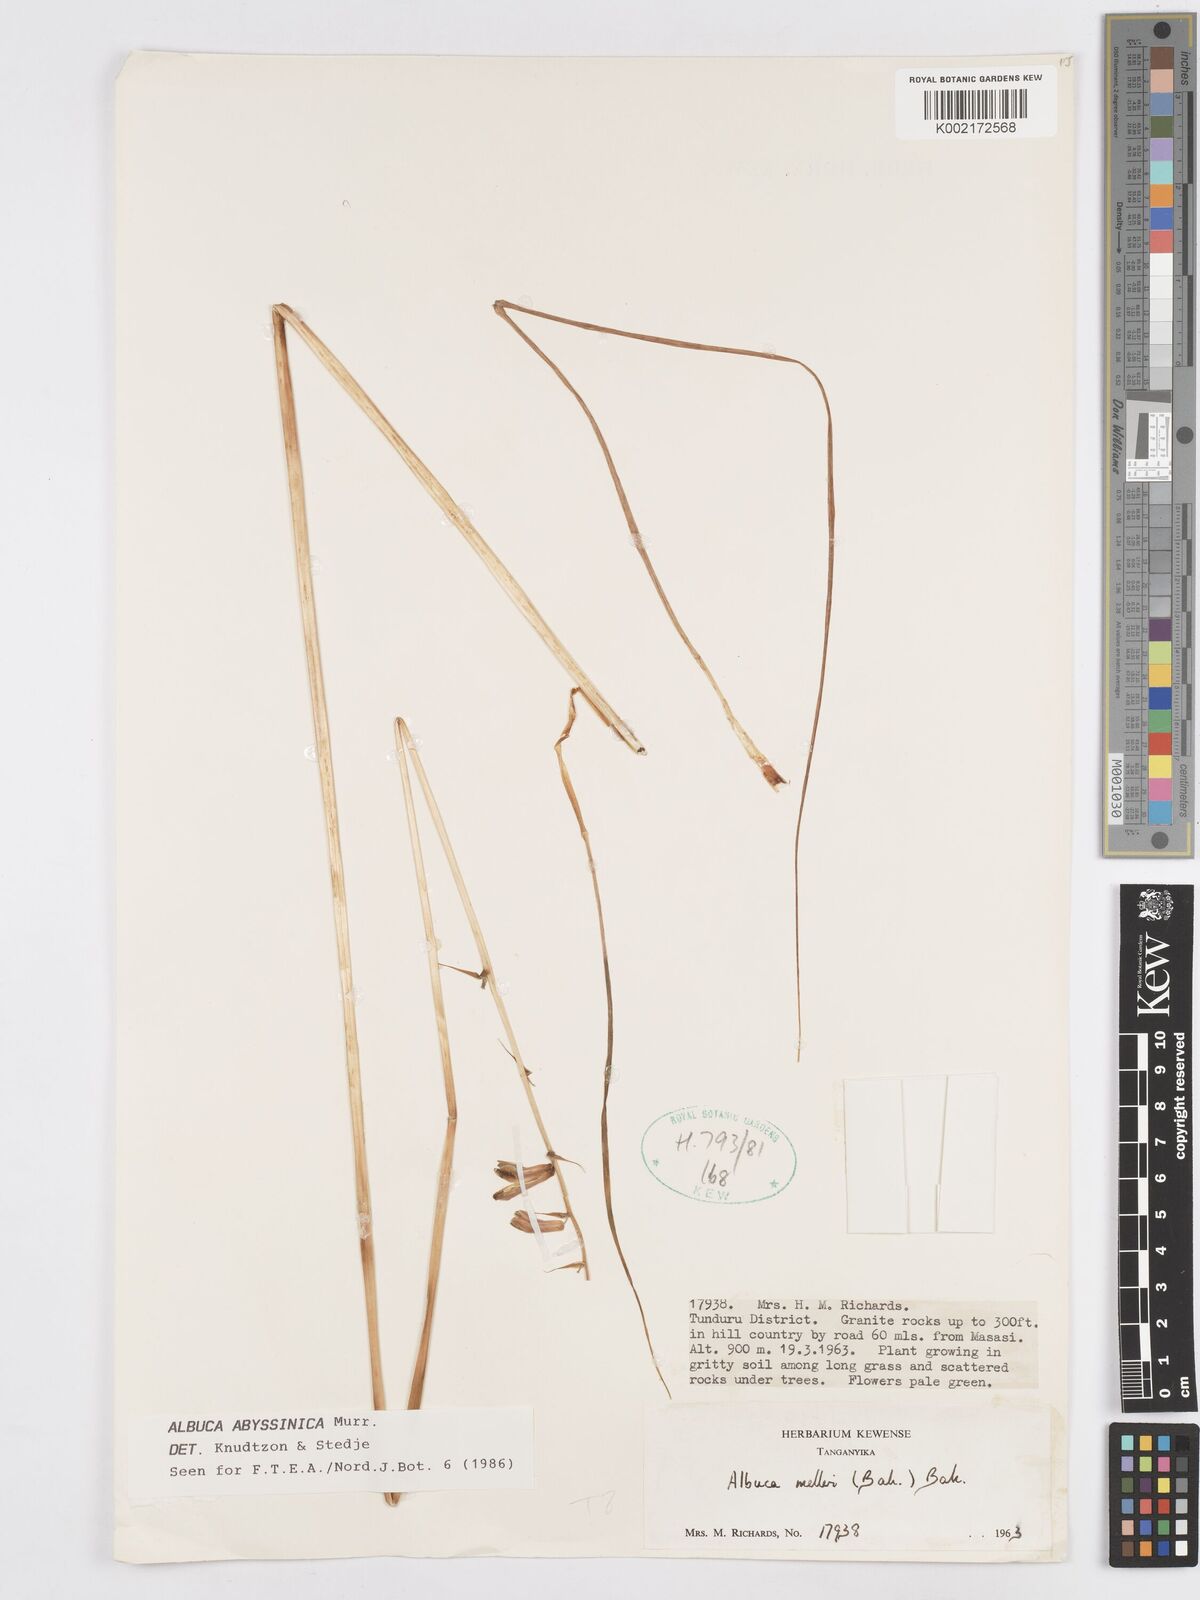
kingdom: Plantae
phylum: Tracheophyta
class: Liliopsida
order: Asparagales
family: Asparagaceae
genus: Albuca
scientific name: Albuca abyssinica
